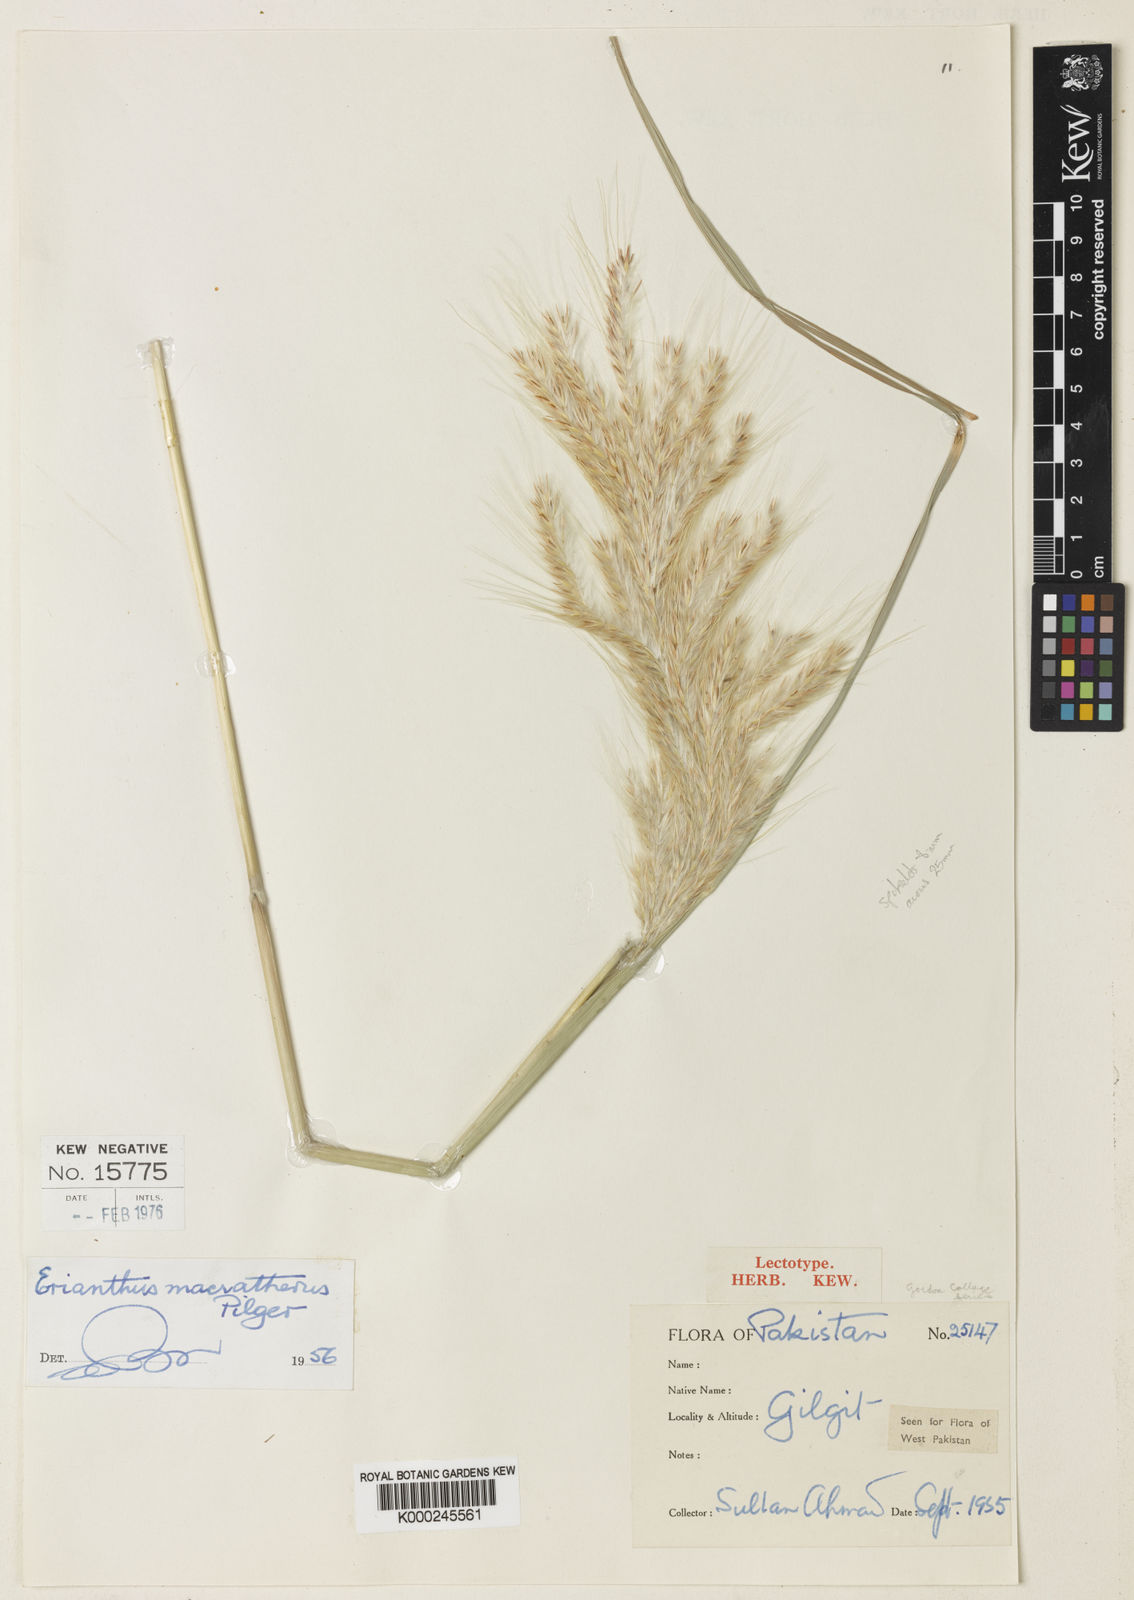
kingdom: Plantae
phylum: Tracheophyta
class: Liliopsida
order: Poales
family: Poaceae
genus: Saccharum
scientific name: Saccharum filifolium
